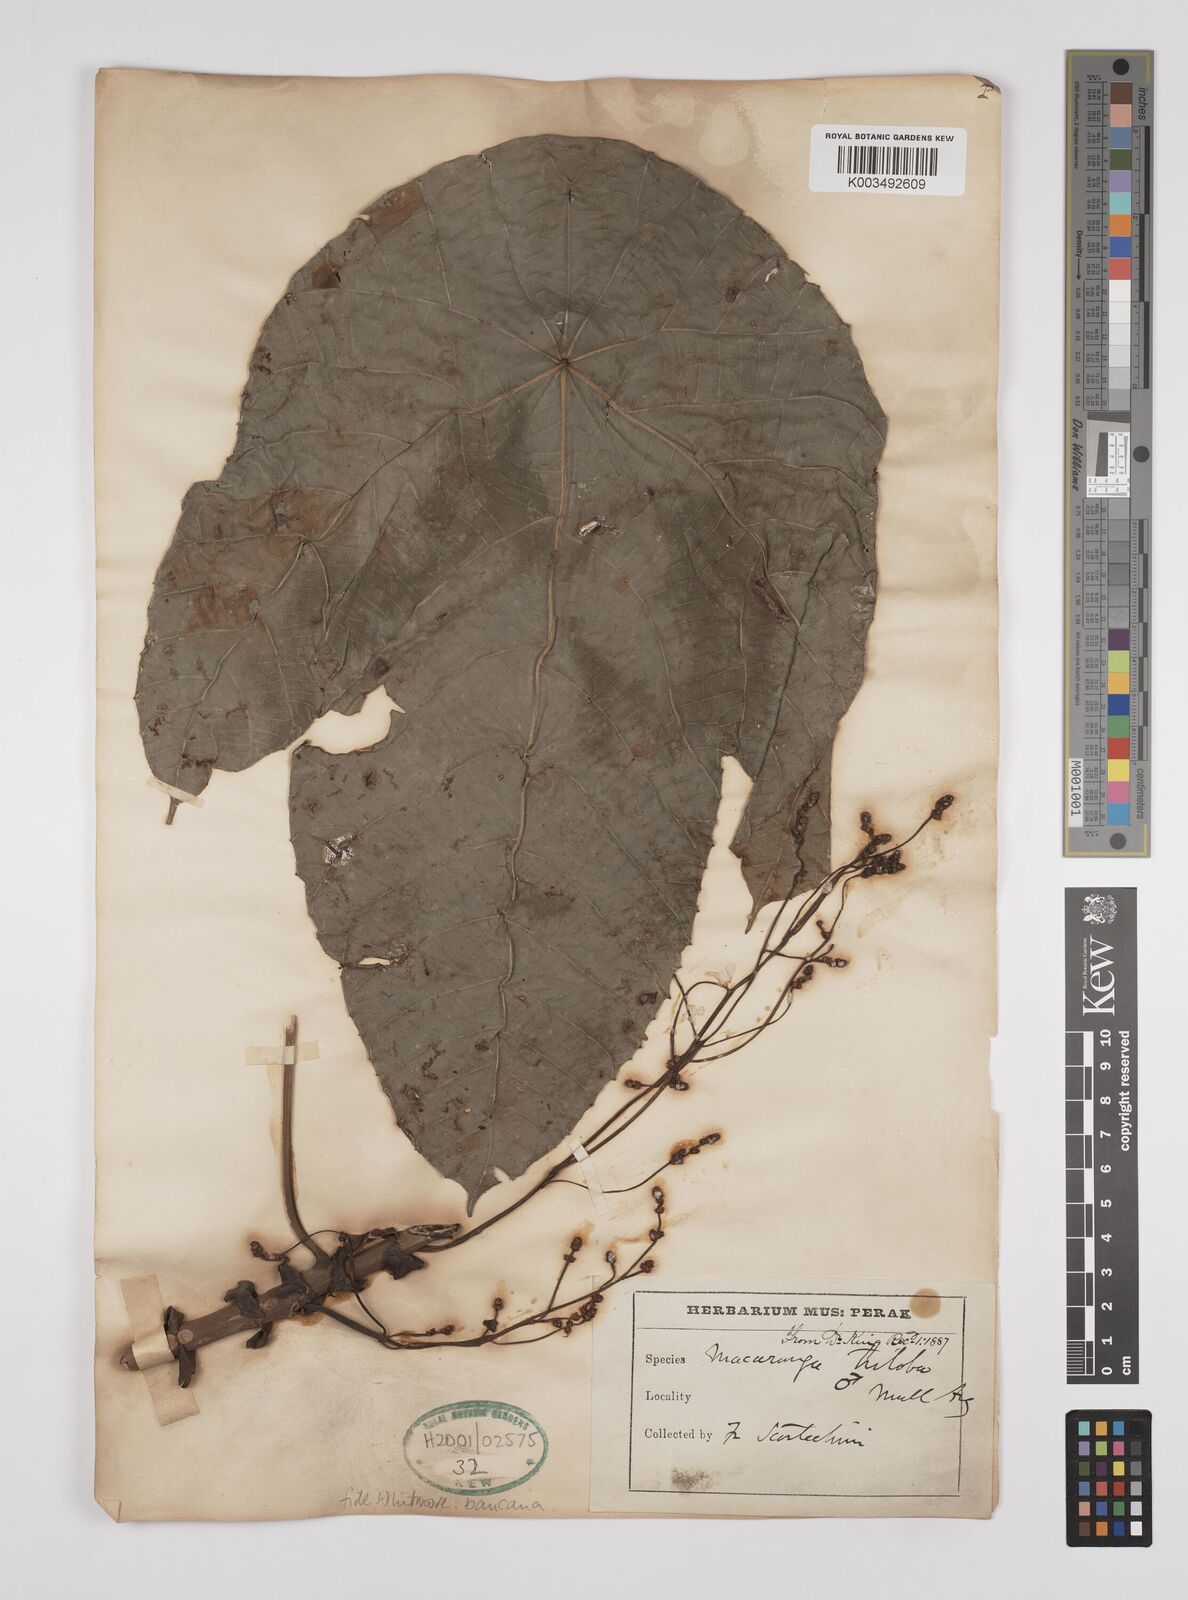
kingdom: Plantae
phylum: Tracheophyta
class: Magnoliopsida
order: Malpighiales
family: Euphorbiaceae
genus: Macaranga
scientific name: Macaranga bancana
